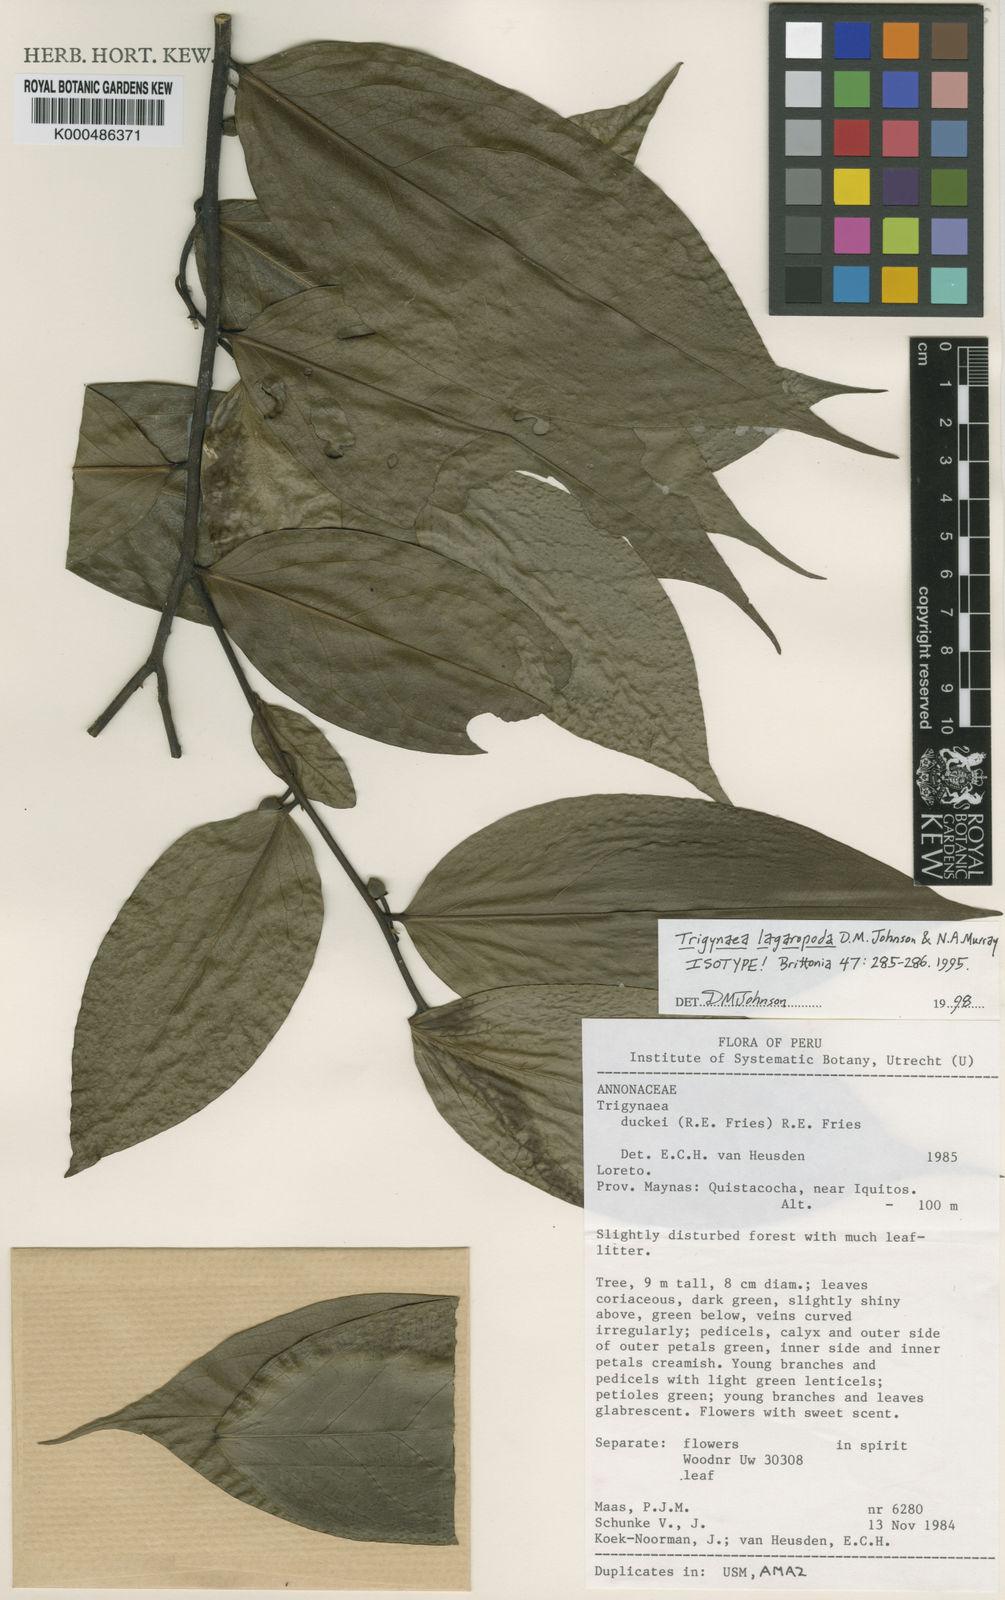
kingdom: Plantae
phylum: Tracheophyta
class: Magnoliopsida
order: Magnoliales
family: Annonaceae
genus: Trigynaea
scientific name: Trigynaea lagaropoda
